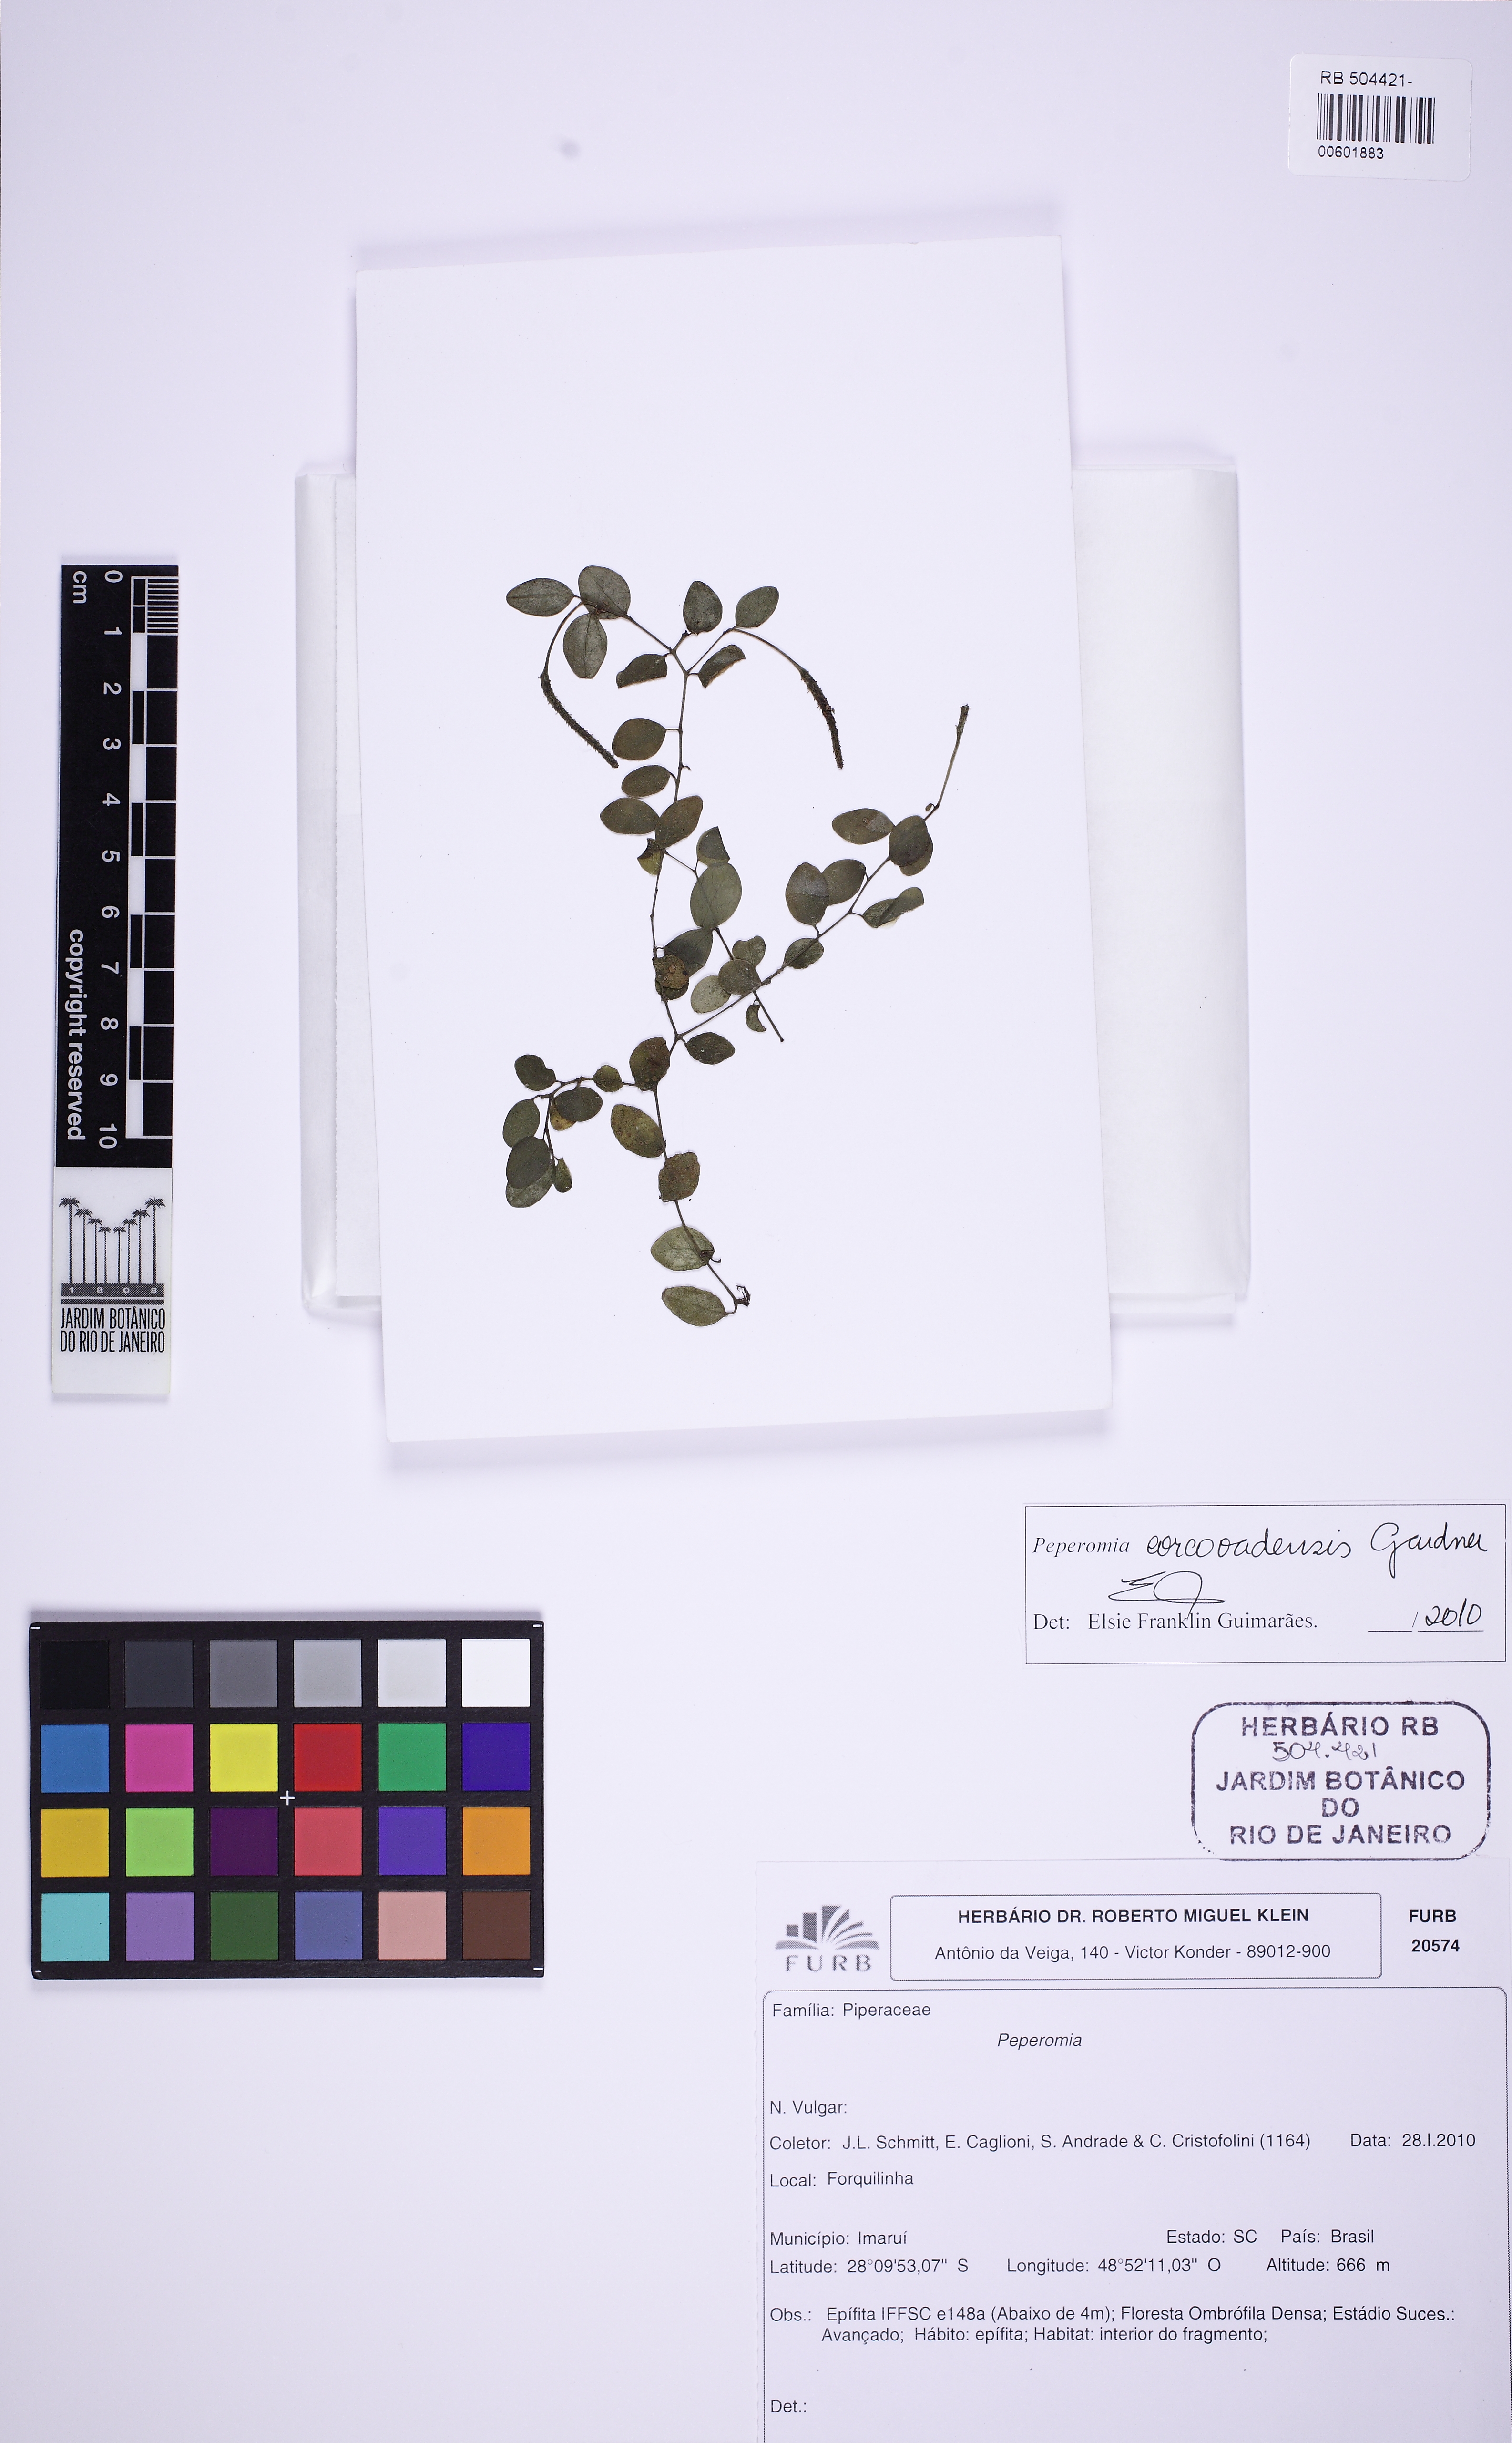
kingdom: Plantae
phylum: Tracheophyta
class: Magnoliopsida
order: Piperales
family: Piperaceae
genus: Peperomia
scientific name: Peperomia corcovadensis
